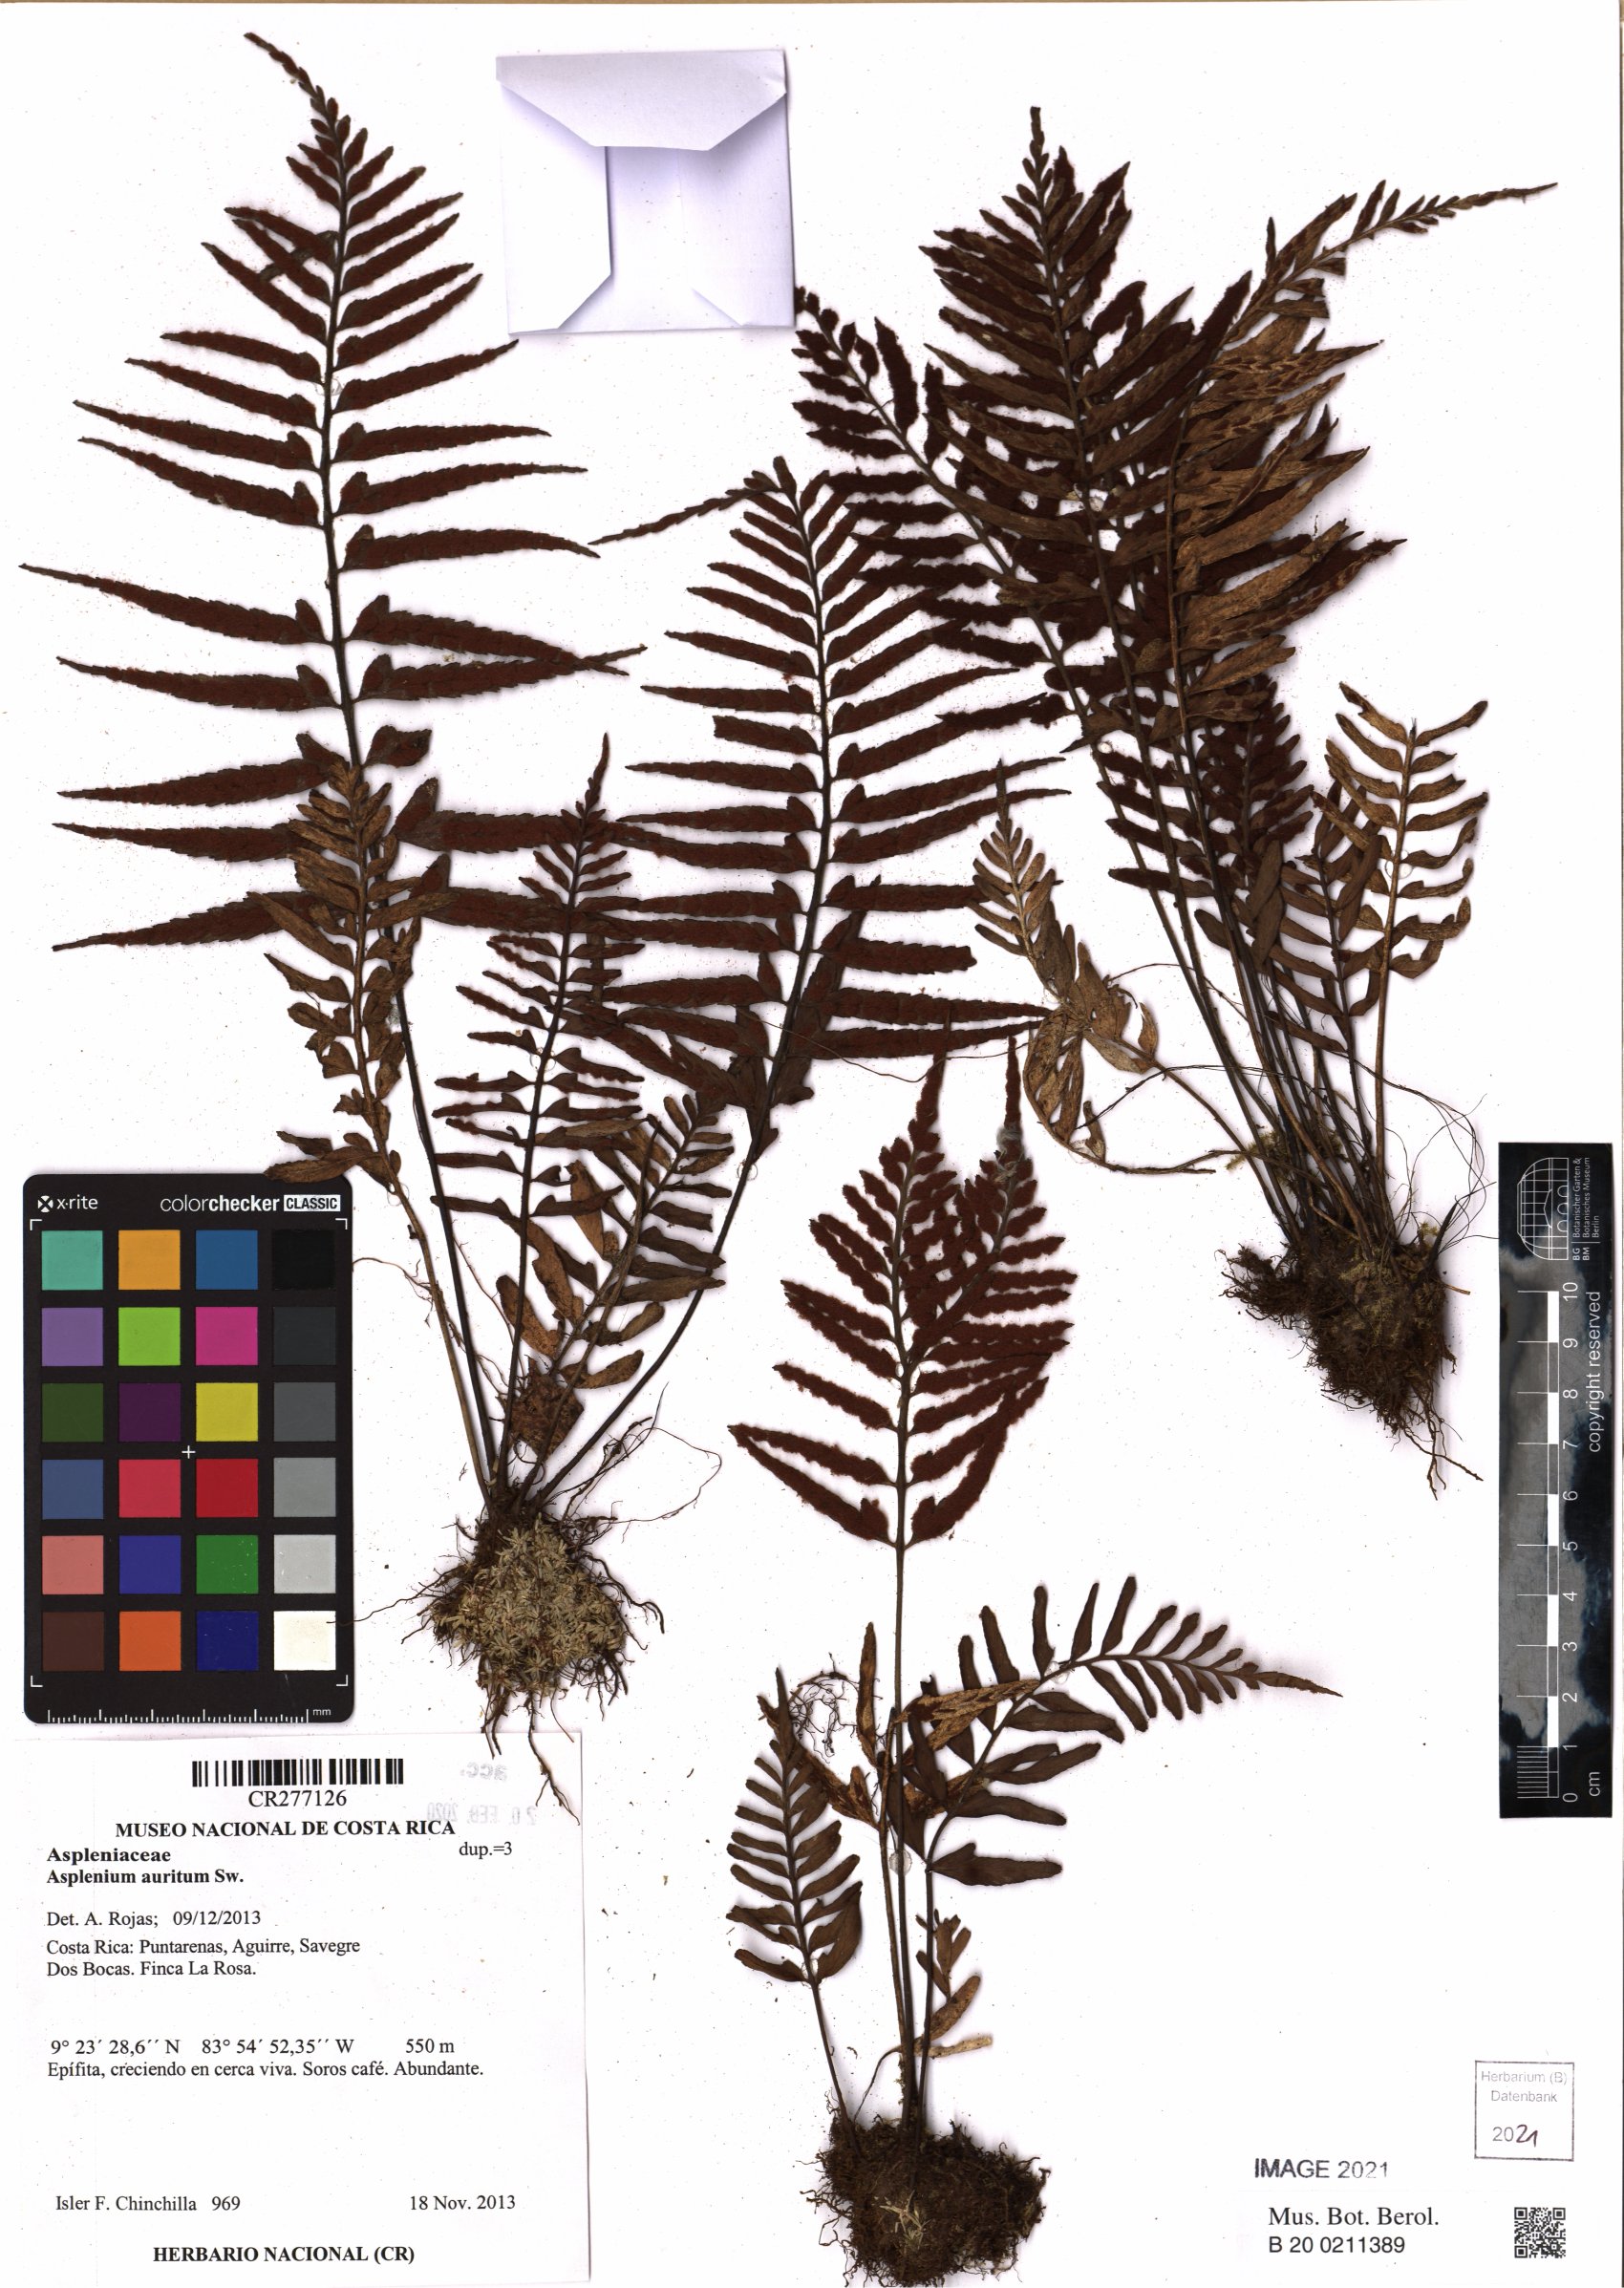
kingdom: Plantae
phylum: Tracheophyta
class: Polypodiopsida
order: Polypodiales
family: Aspleniaceae
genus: Asplenium
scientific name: Asplenium auritum
